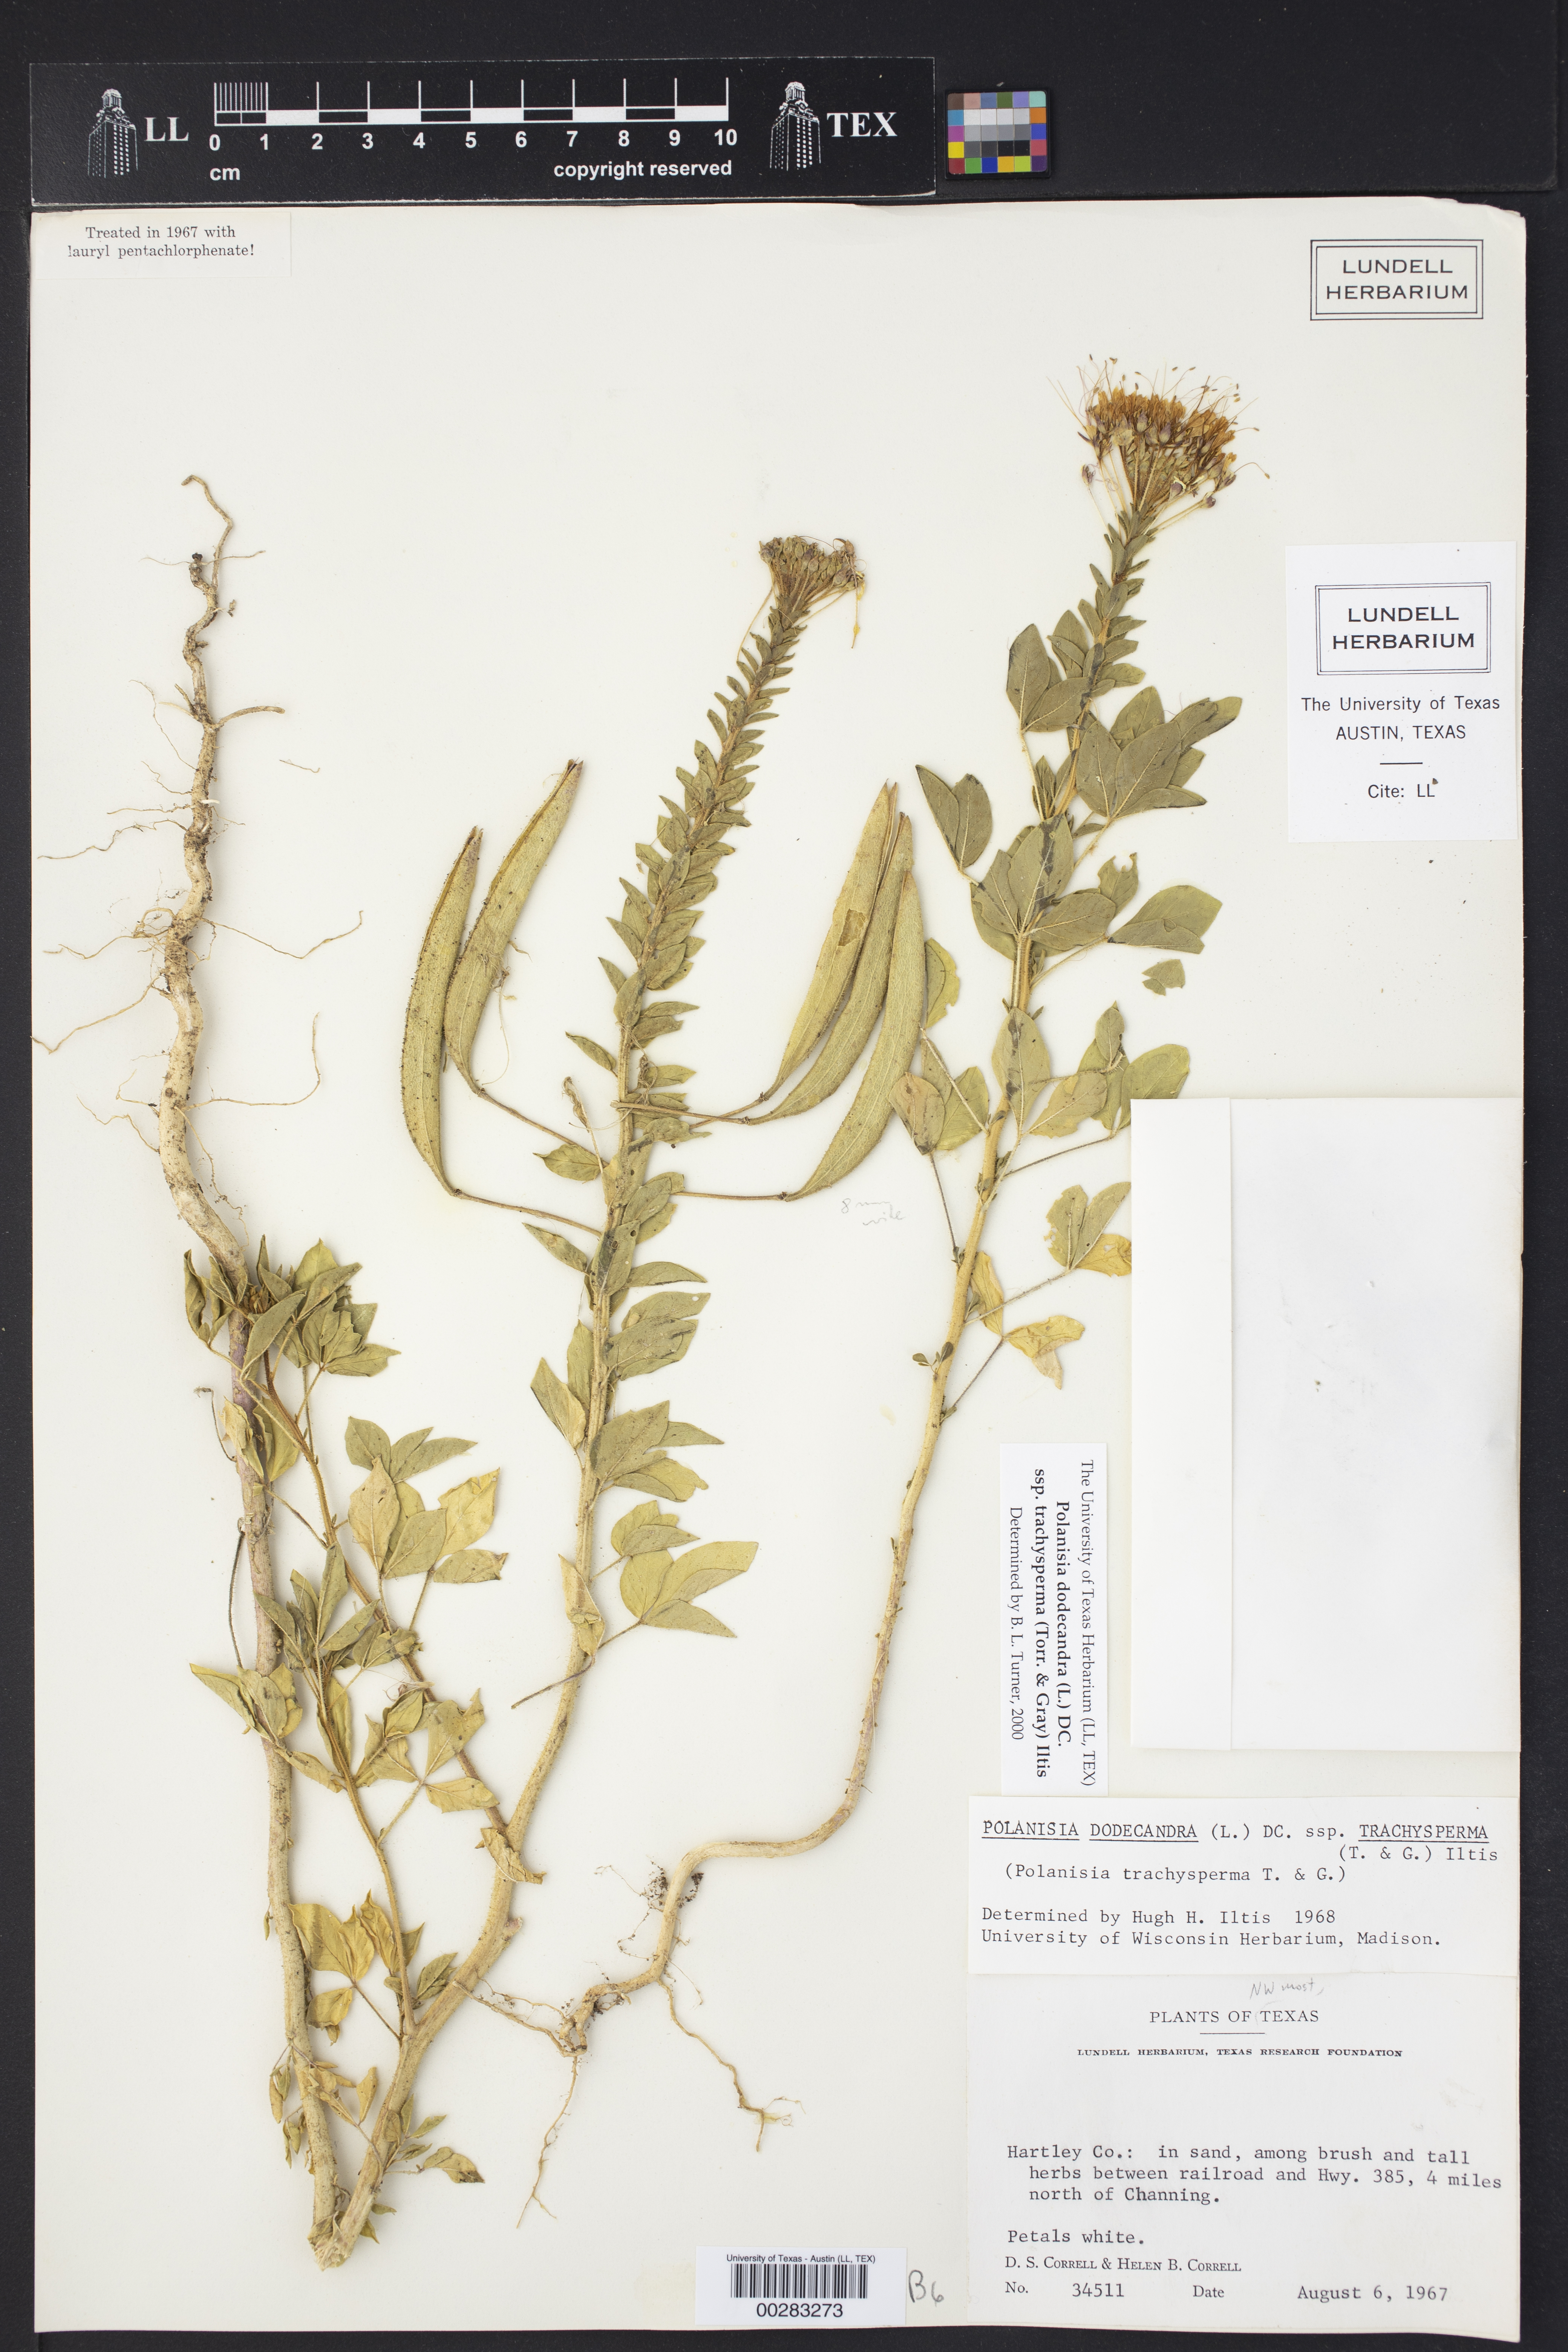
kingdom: Plantae
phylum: Tracheophyta
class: Magnoliopsida
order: Brassicales
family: Cleomaceae
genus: Polanisia
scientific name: Polanisia trachysperma
